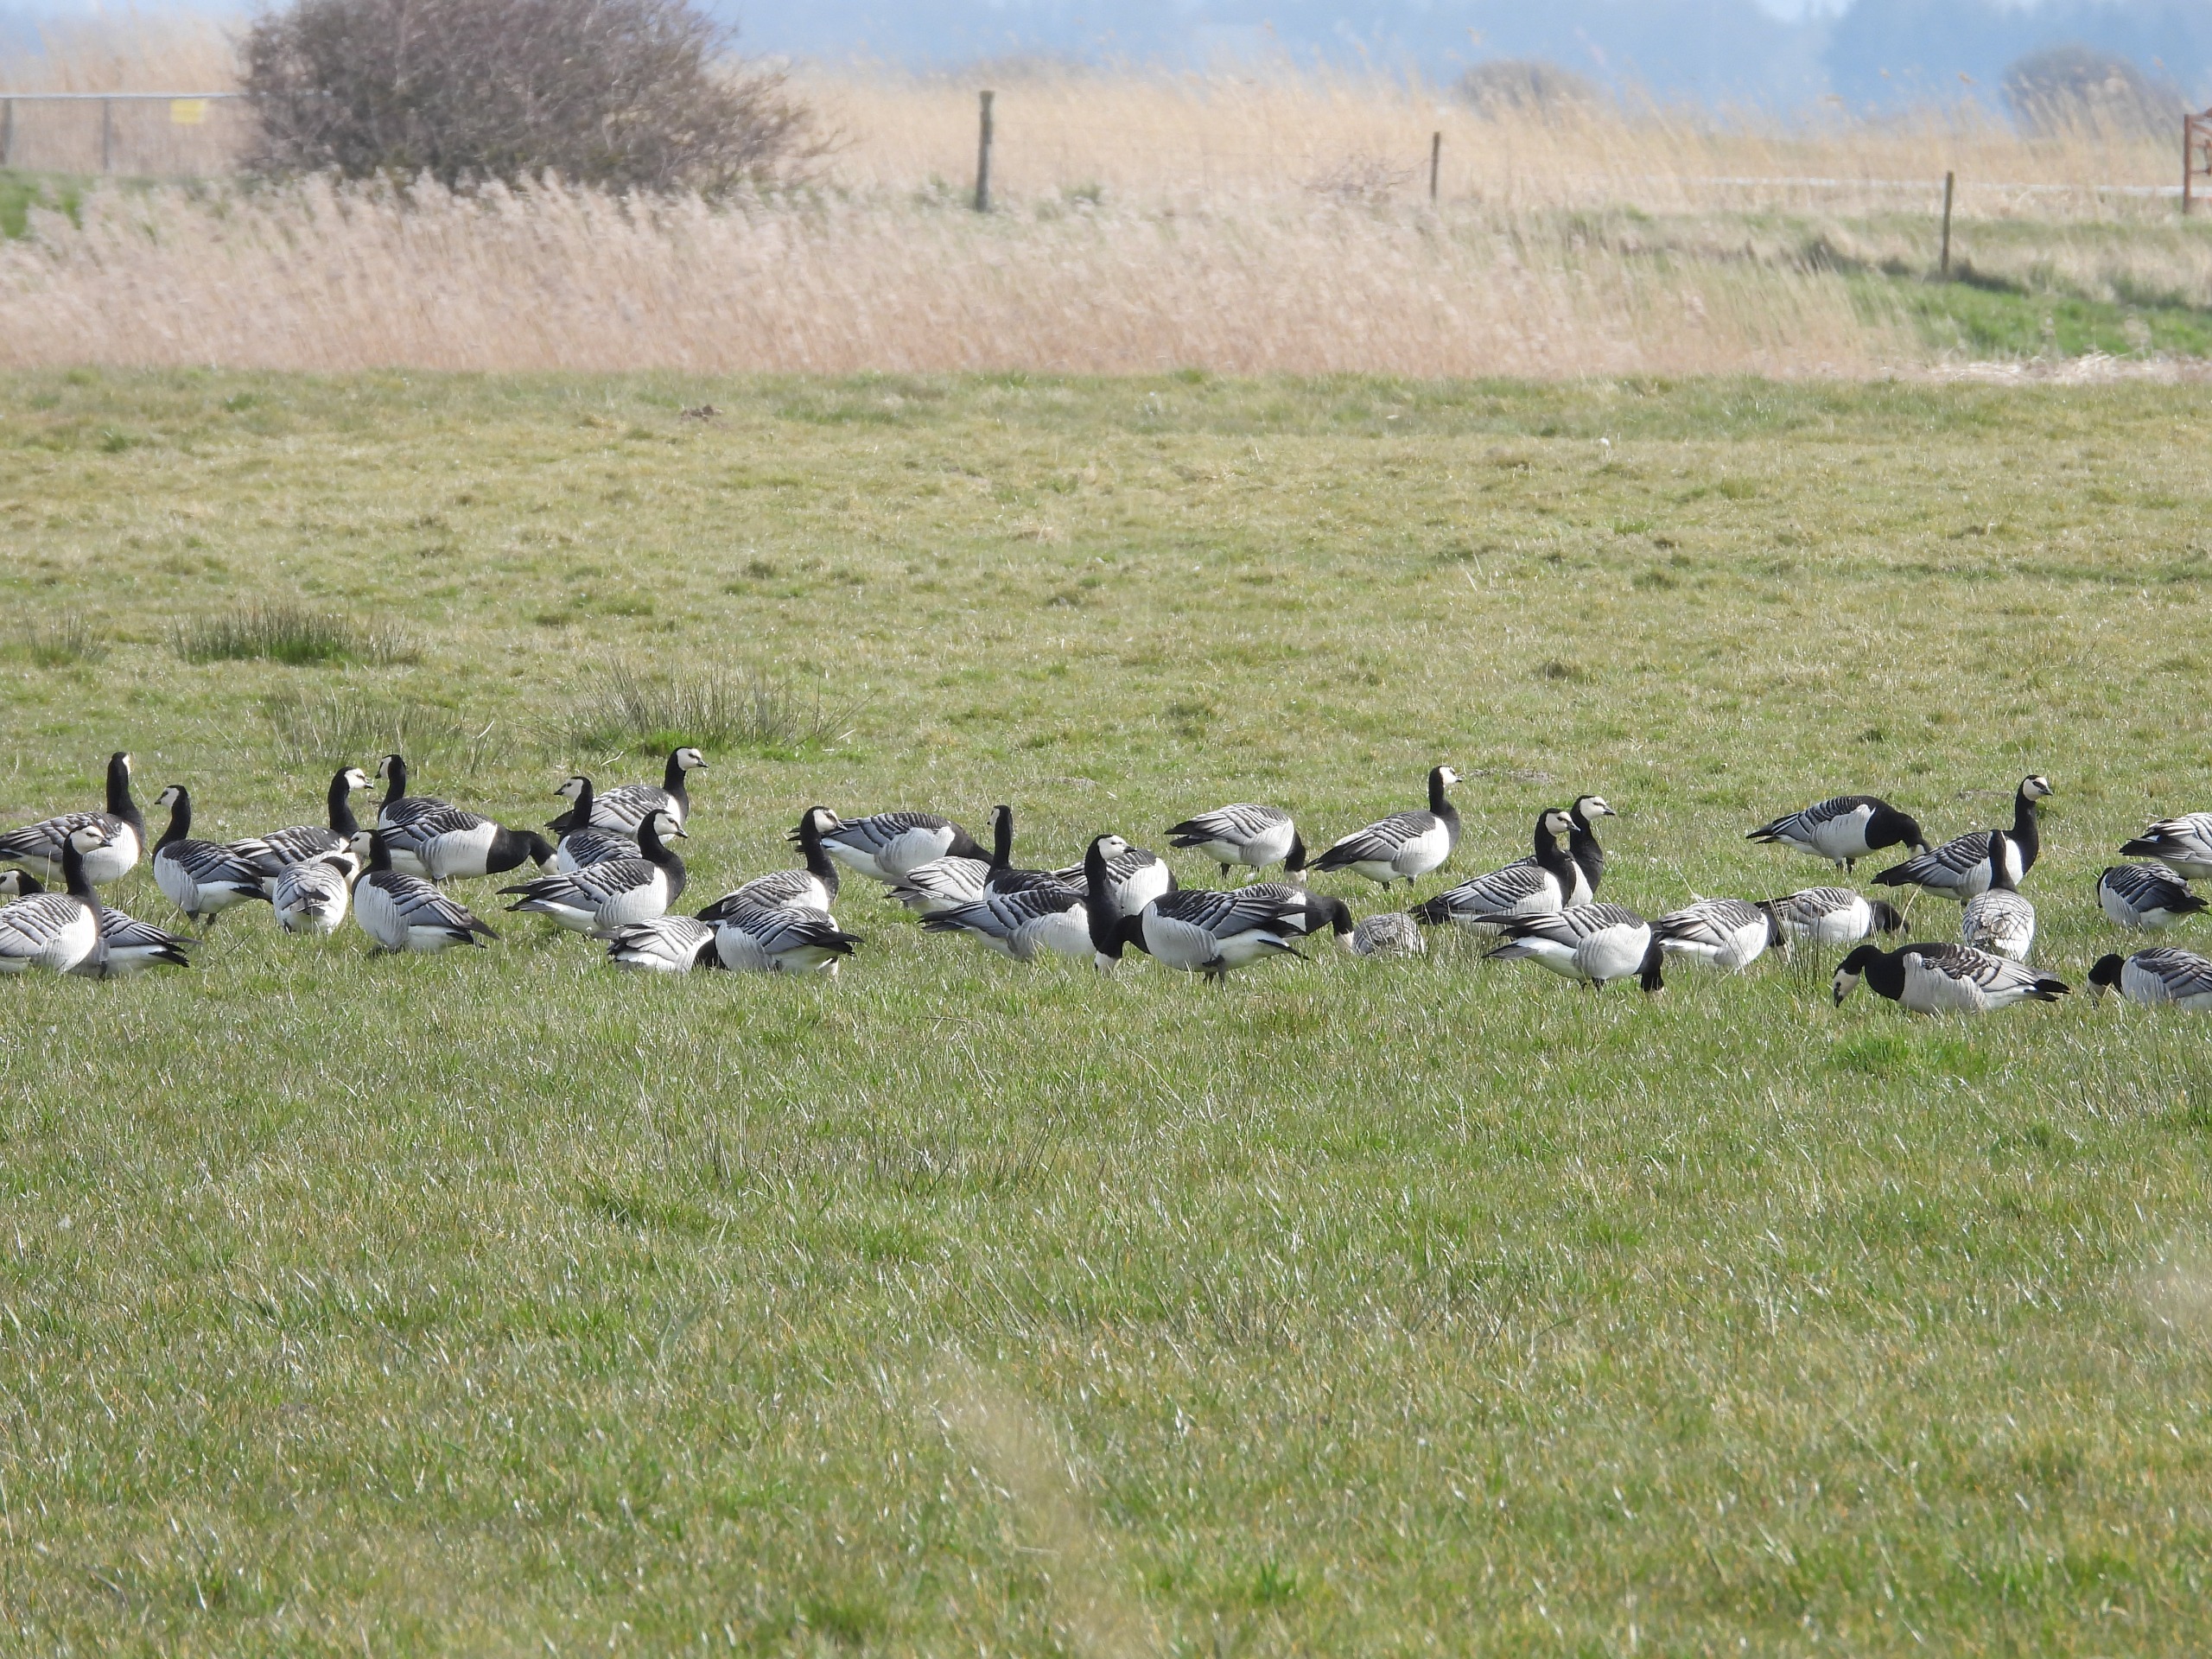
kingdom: Animalia
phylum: Chordata
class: Aves
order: Anseriformes
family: Anatidae
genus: Branta
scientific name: Branta leucopsis
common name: Bramgås
